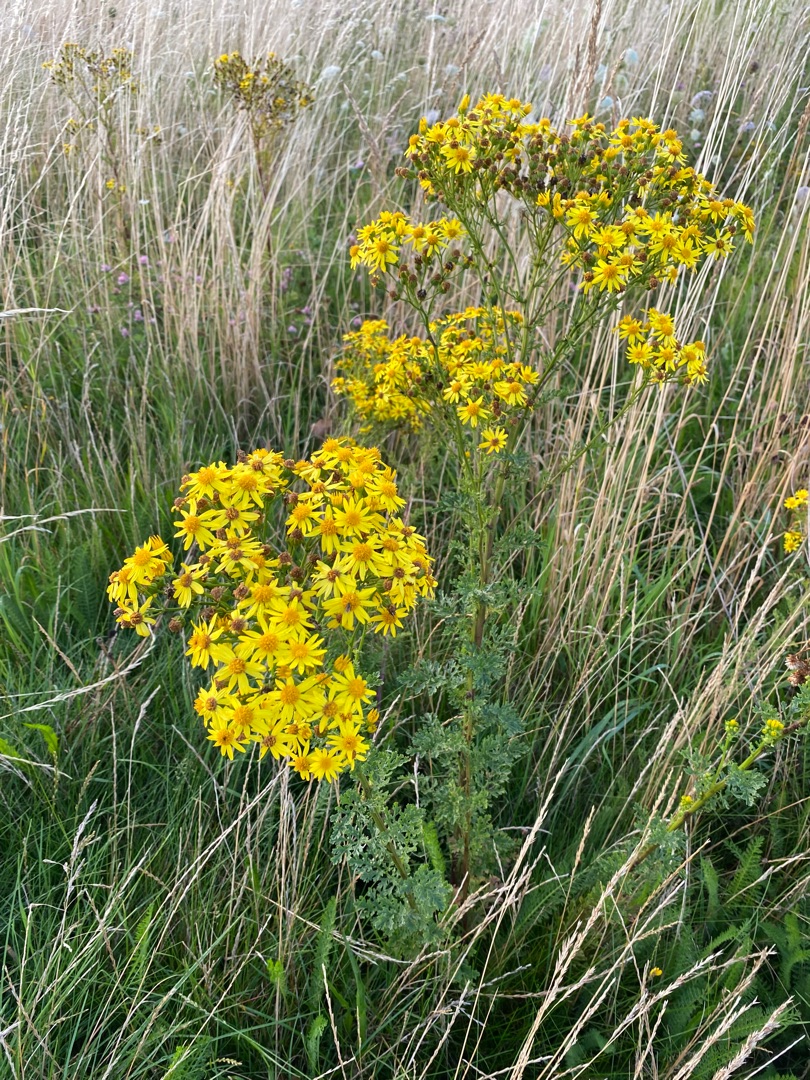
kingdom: Plantae
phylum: Tracheophyta
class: Magnoliopsida
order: Asterales
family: Asteraceae
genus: Jacobaea
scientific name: Jacobaea vulgaris
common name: Eng-brandbæger
